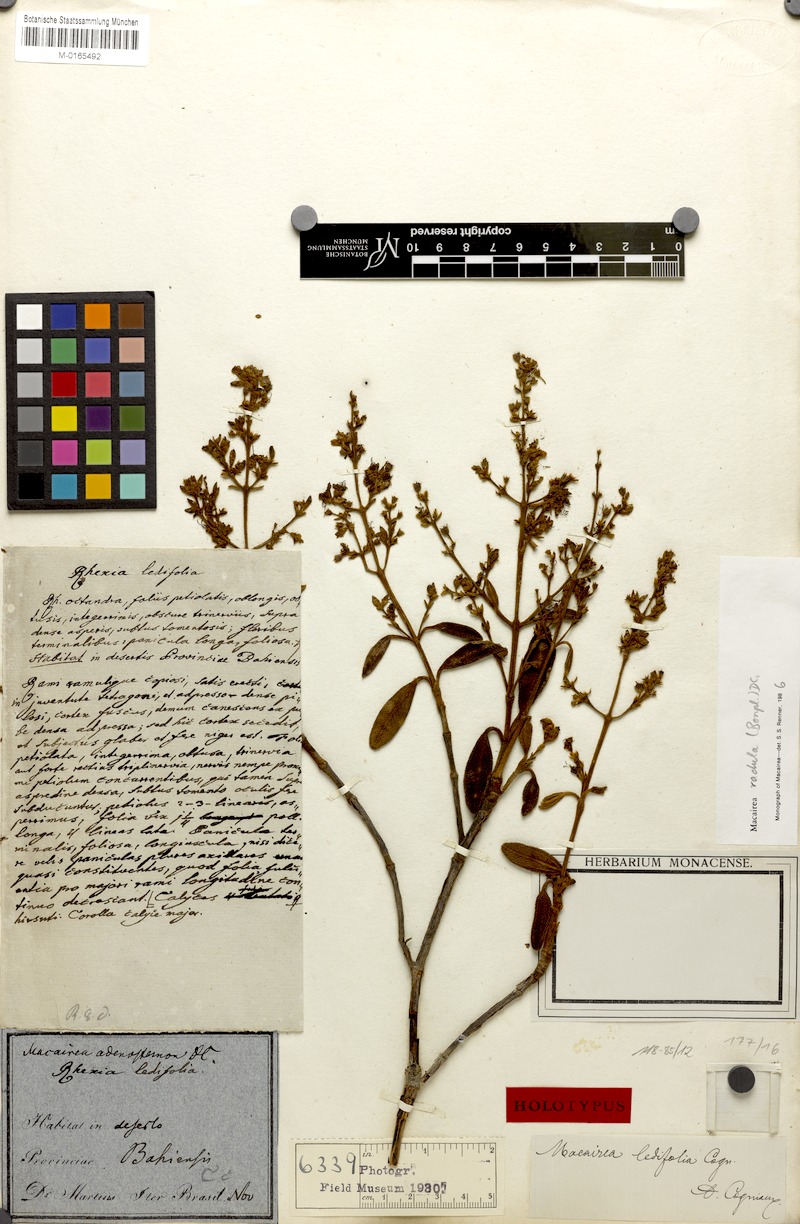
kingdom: Plantae
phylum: Tracheophyta
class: Magnoliopsida
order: Myrtales
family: Melastomataceae
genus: Macairea
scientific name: Macairea radula
